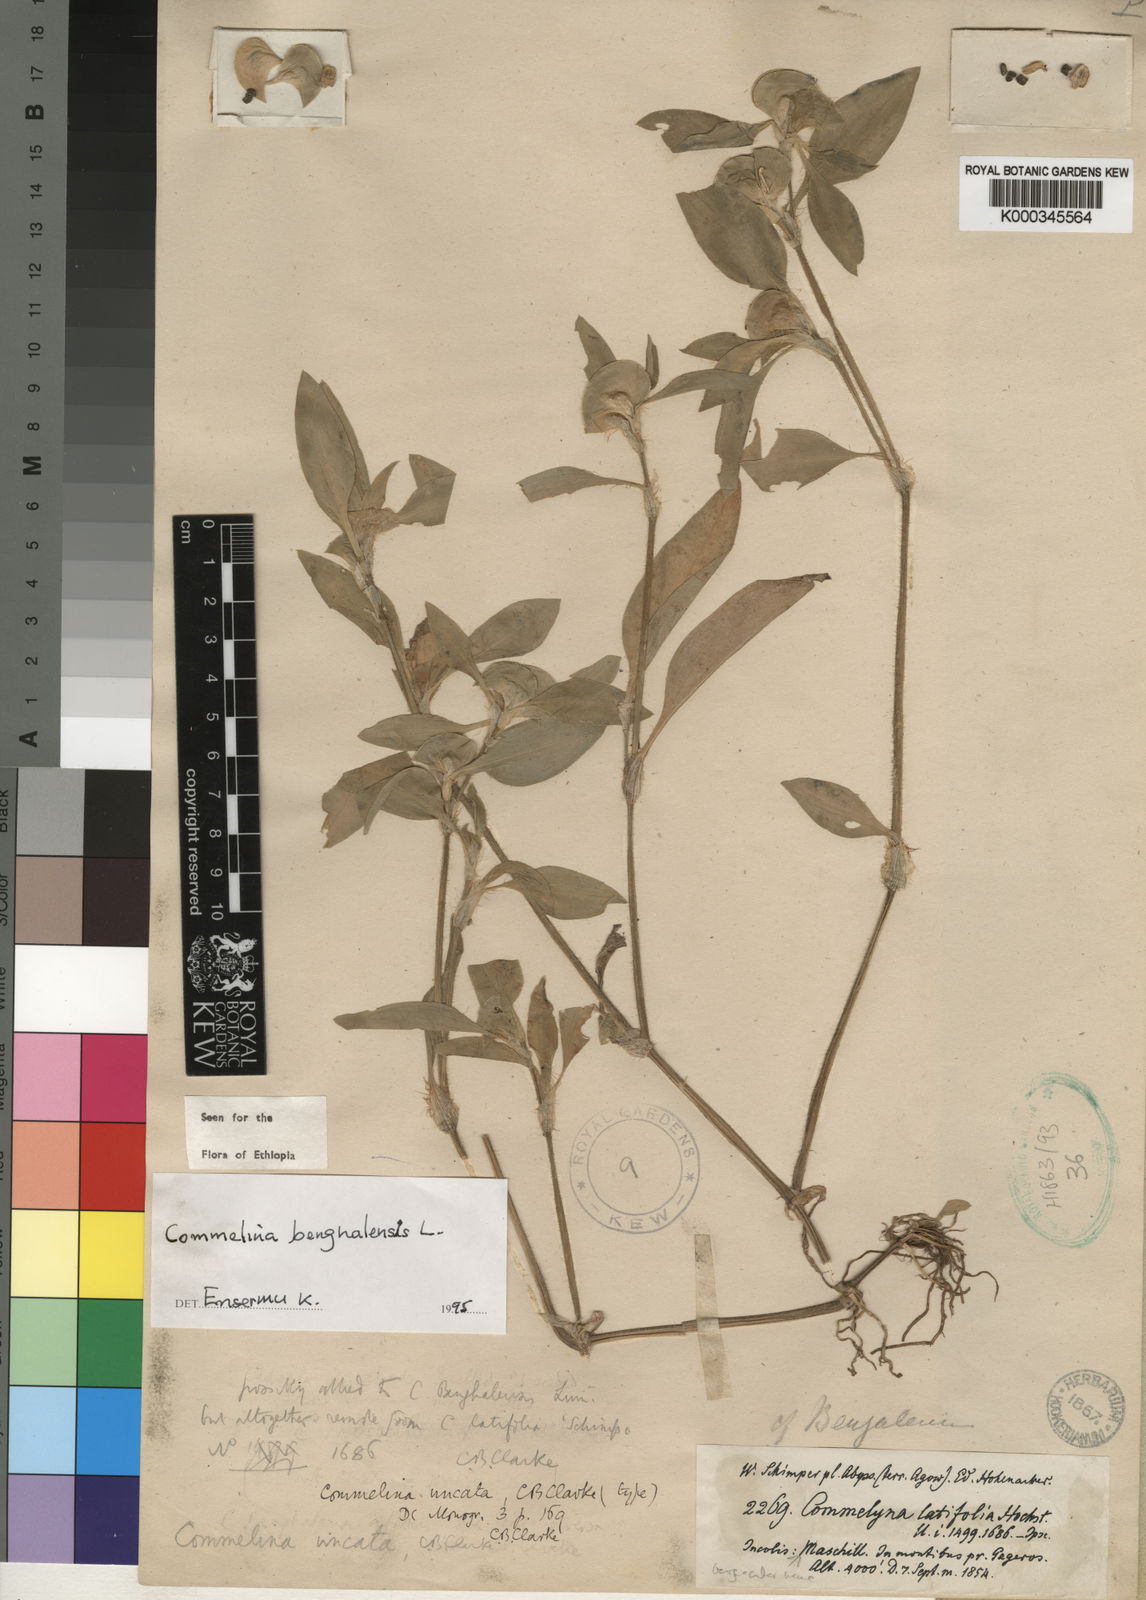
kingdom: Plantae
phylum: Tracheophyta
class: Liliopsida
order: Commelinales
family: Commelinaceae
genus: Commelina
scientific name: Commelina benghalensis
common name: Jio
